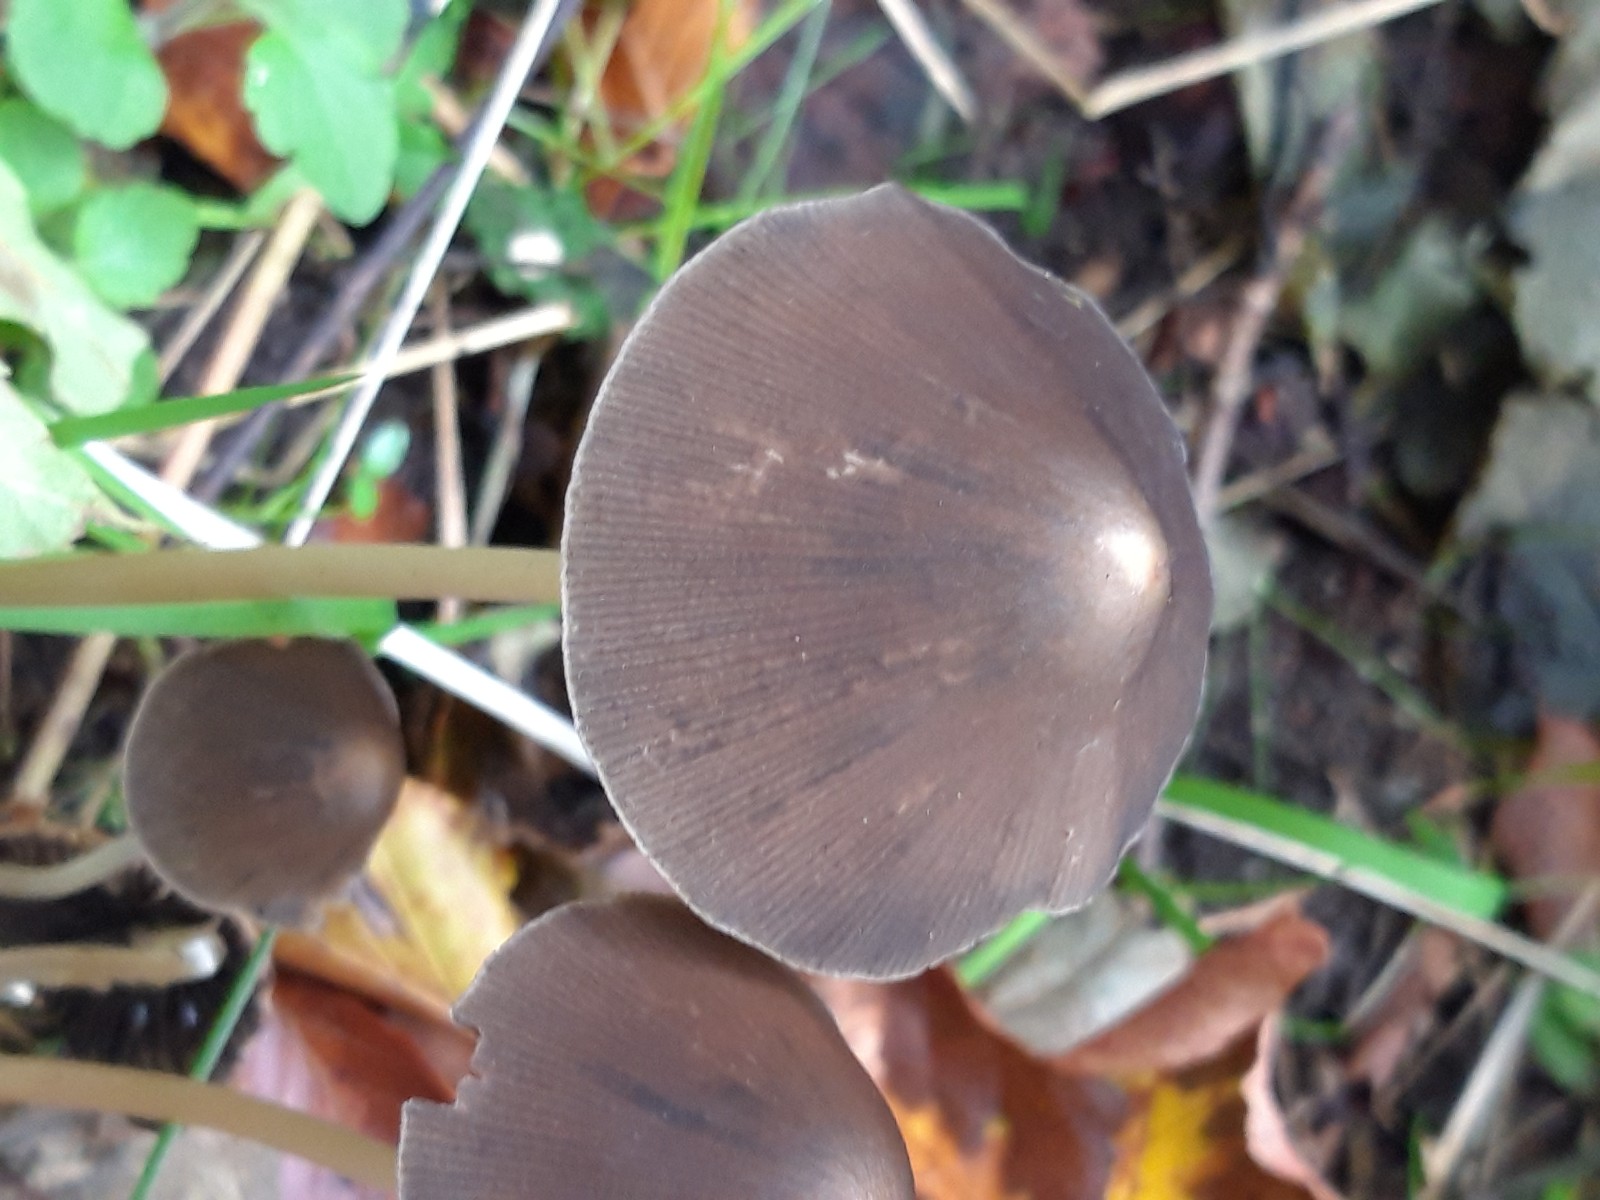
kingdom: Fungi
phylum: Basidiomycota
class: Agaricomycetes
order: Agaricales
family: Psathyrellaceae
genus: Parasola
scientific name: Parasola conopilea
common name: kegle-hjulhat
